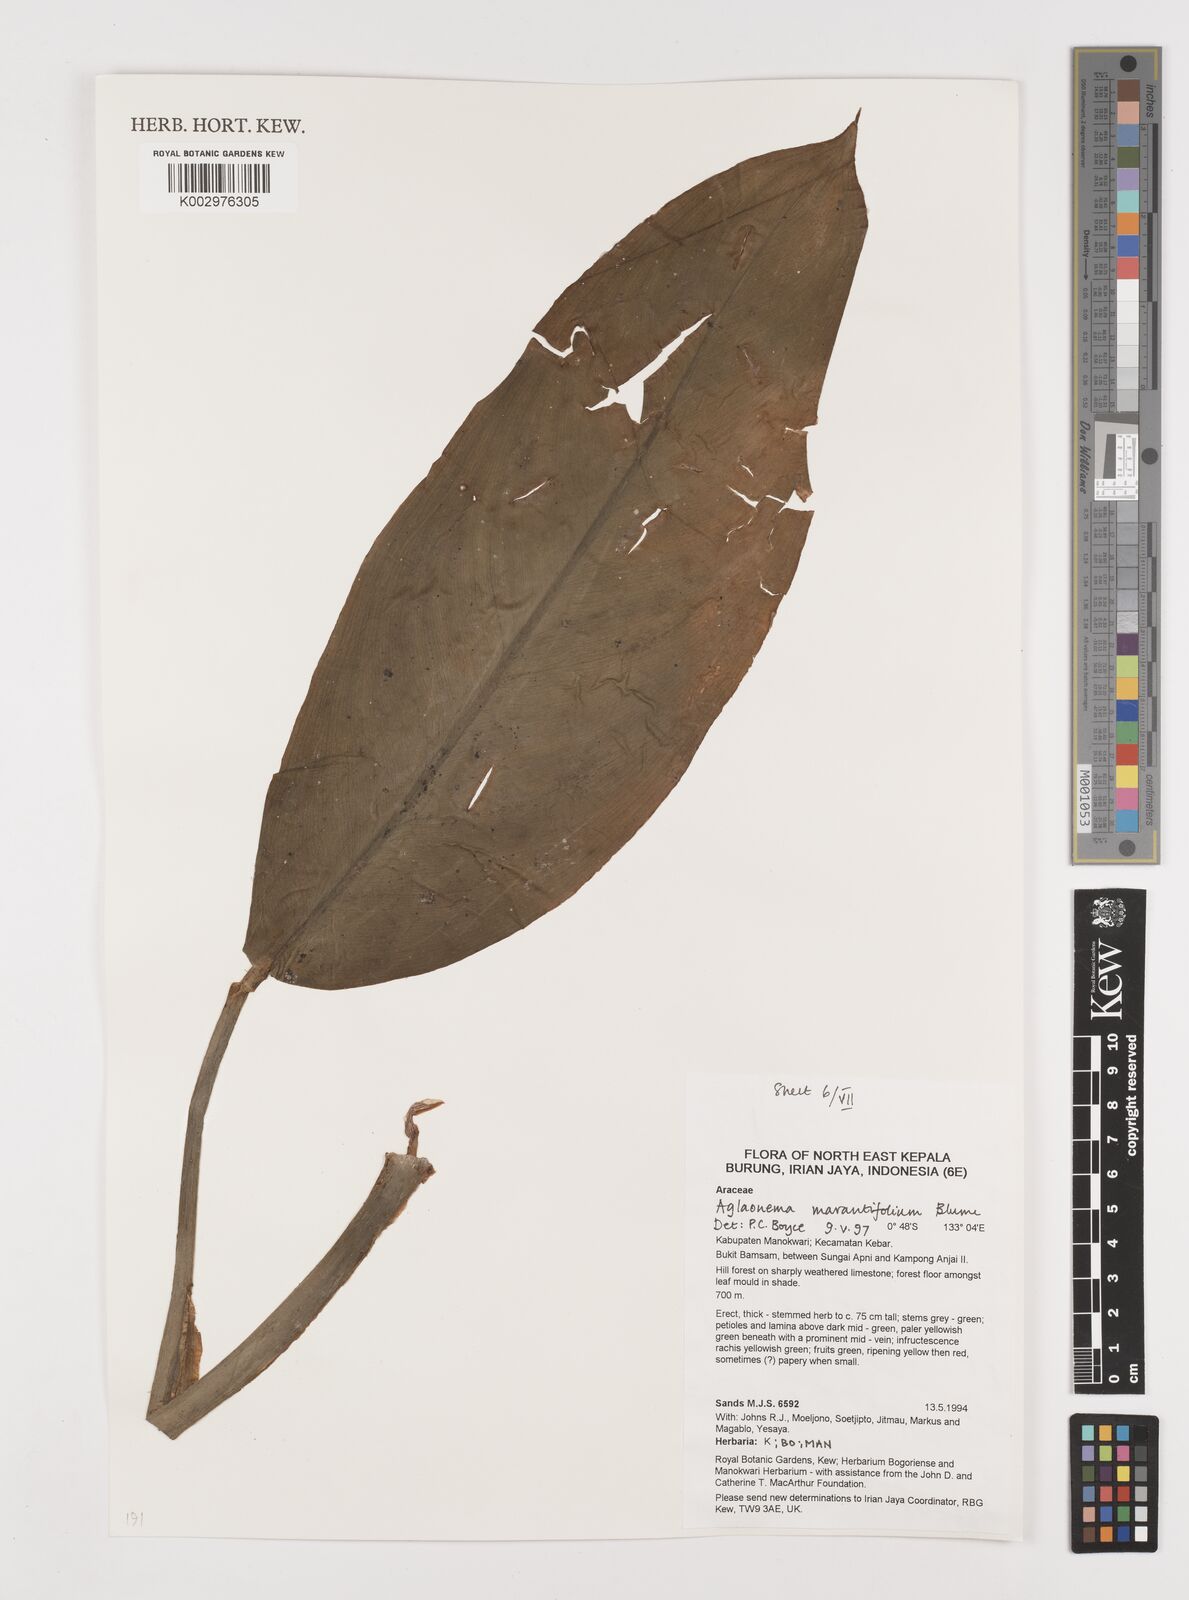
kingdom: Plantae
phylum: Tracheophyta
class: Liliopsida
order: Alismatales
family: Araceae
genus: Aglaonema
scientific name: Aglaonema marantifolium
